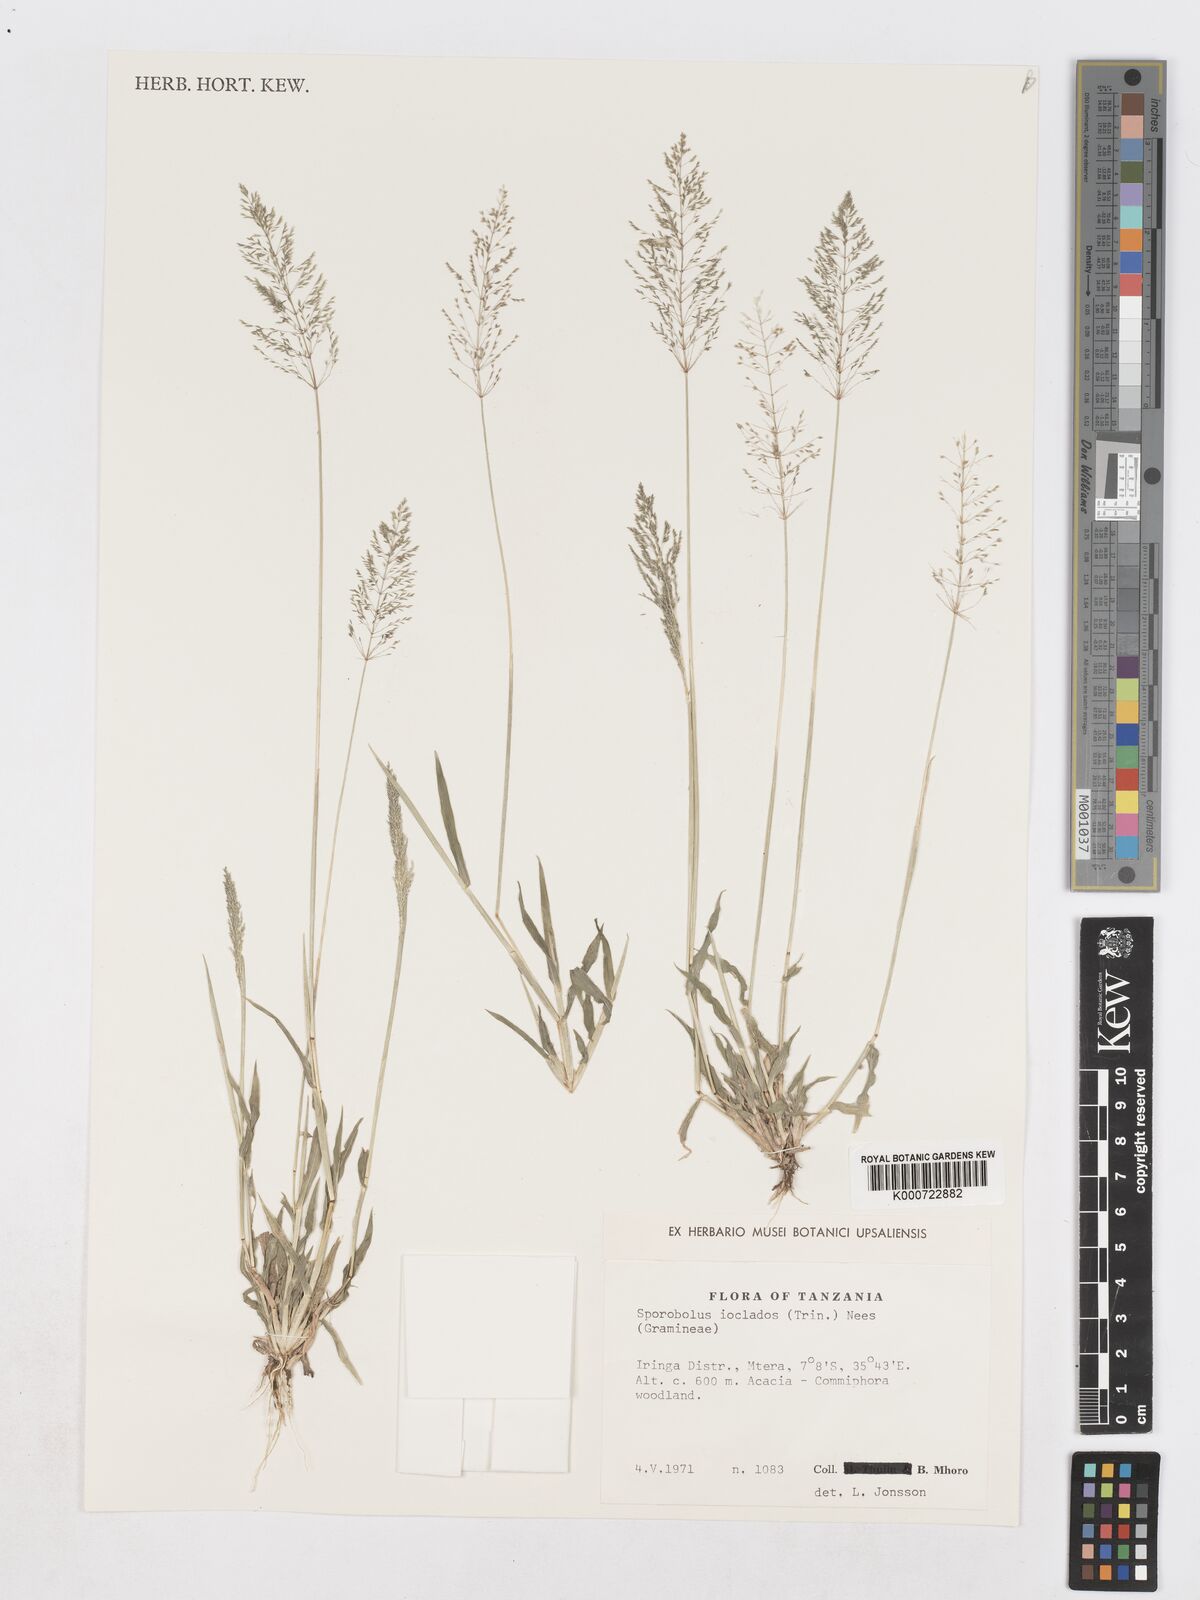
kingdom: Plantae
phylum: Tracheophyta
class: Liliopsida
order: Poales
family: Poaceae
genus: Sporobolus
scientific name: Sporobolus ioclados
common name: Pan dropseed
